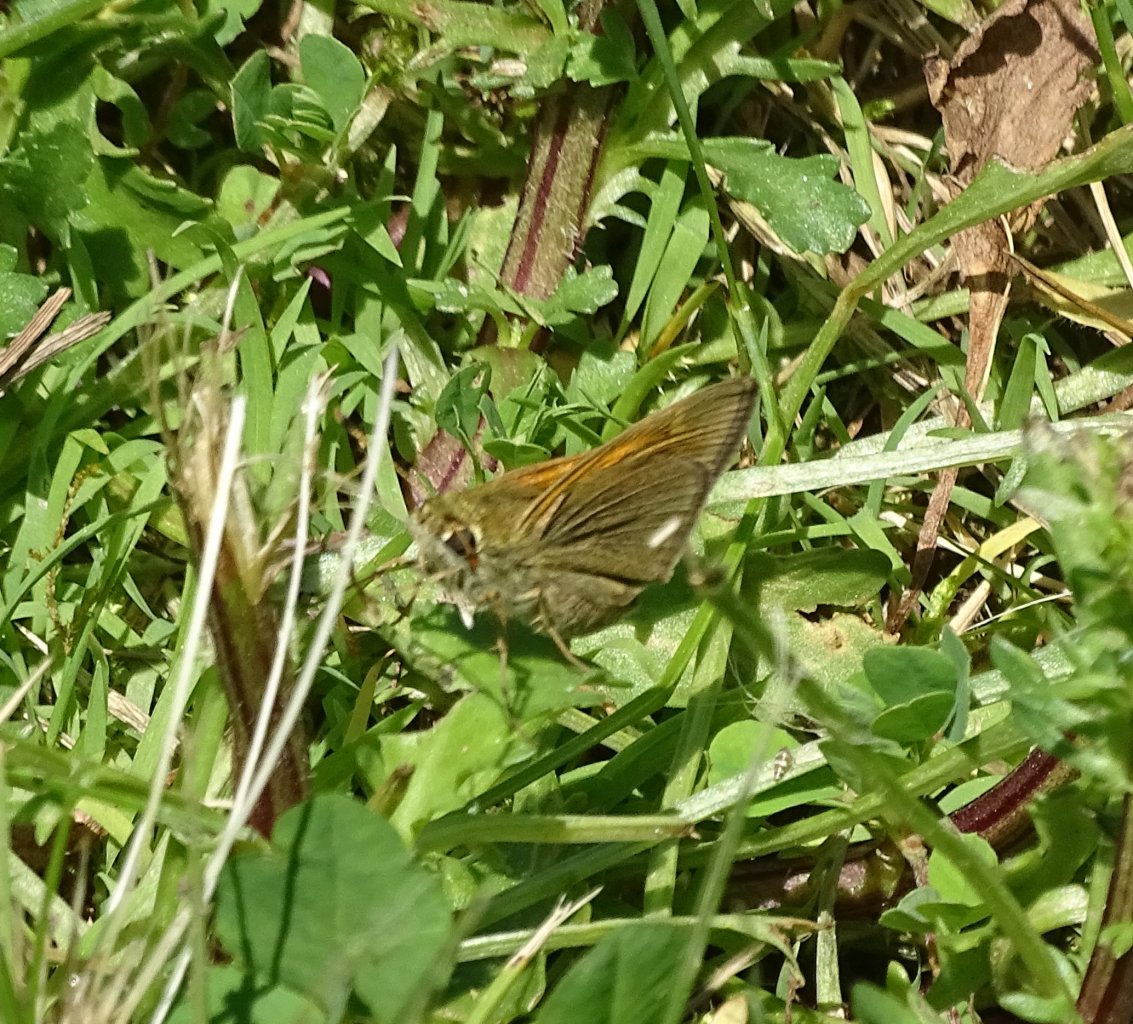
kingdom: Animalia
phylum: Arthropoda
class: Insecta
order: Lepidoptera
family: Hesperiidae
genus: Polites
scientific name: Polites themistocles
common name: Tawny-edged Skipper
